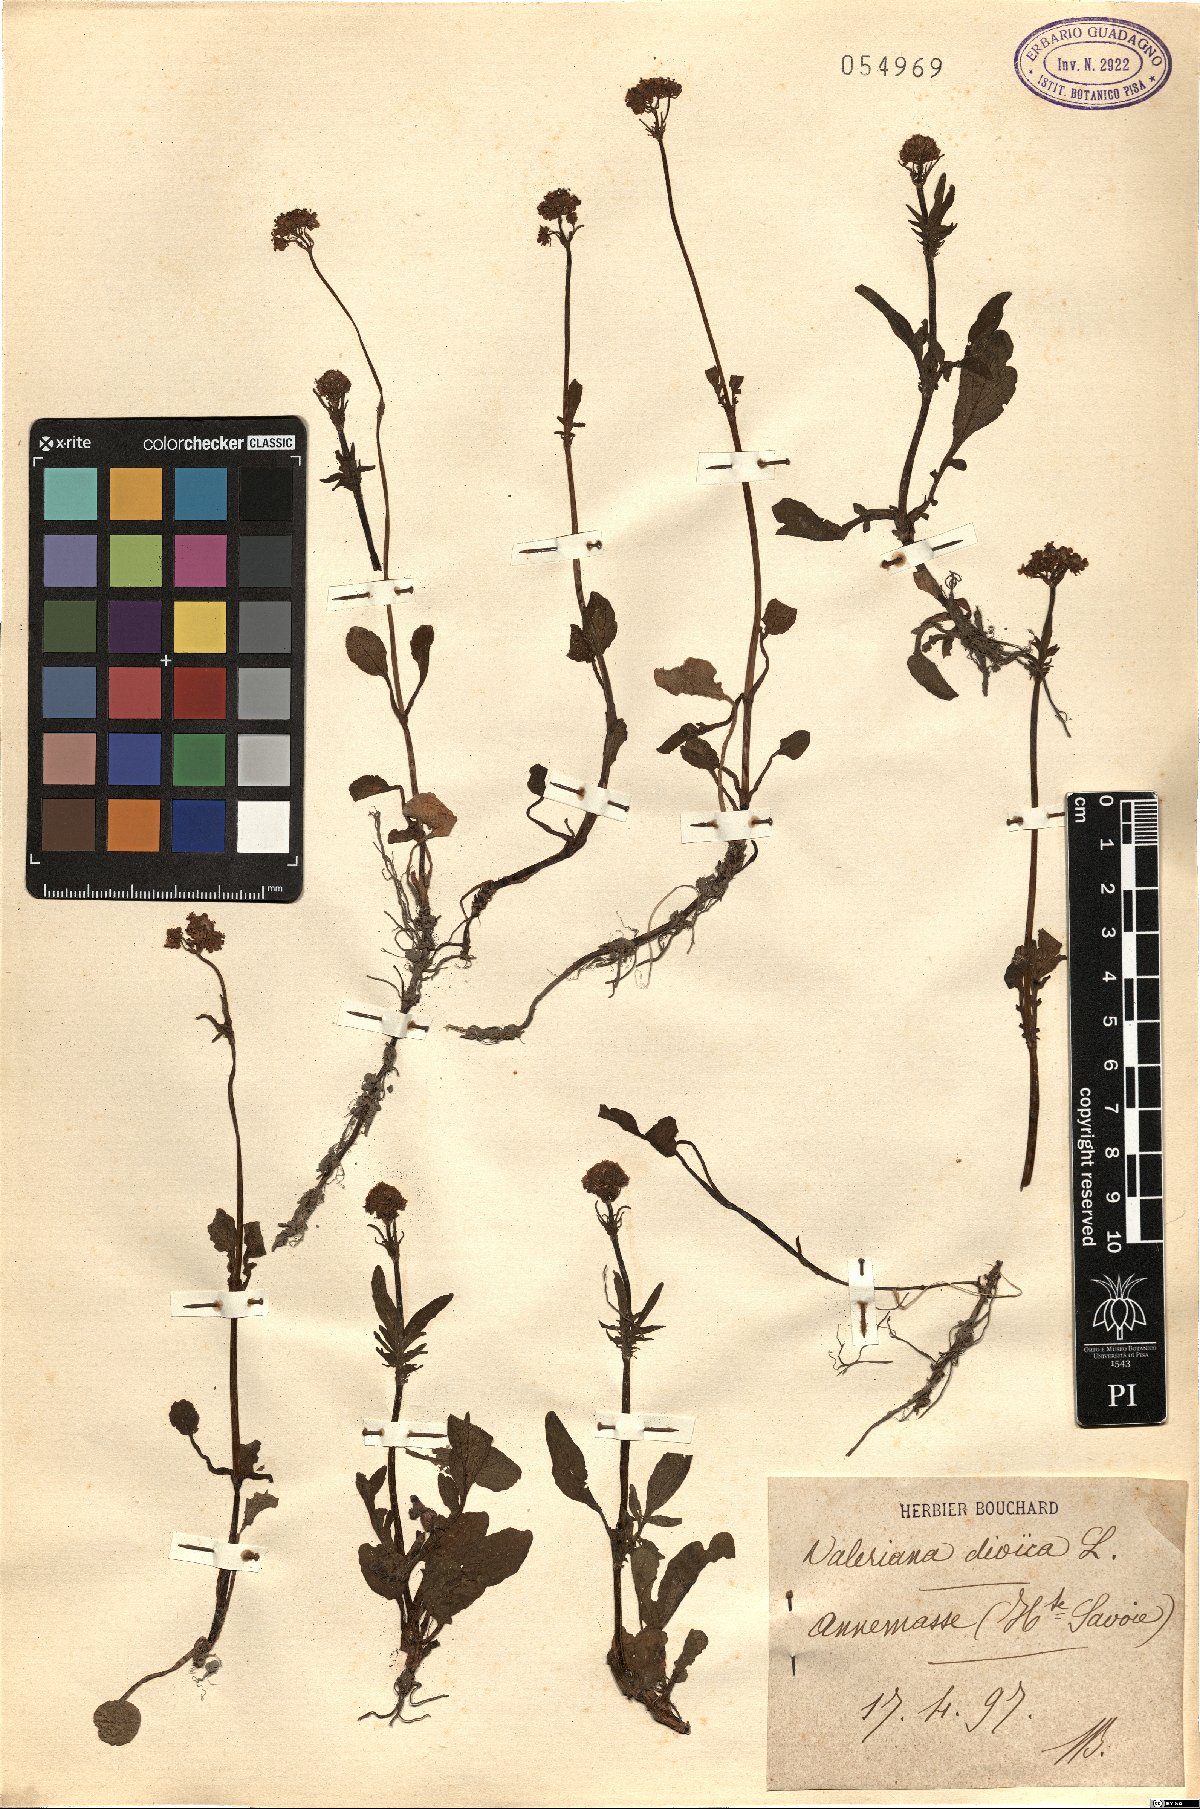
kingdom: Plantae
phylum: Tracheophyta
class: Magnoliopsida
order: Dipsacales
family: Caprifoliaceae
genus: Valeriana
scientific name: Valeriana dioica
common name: Marsh valerian
